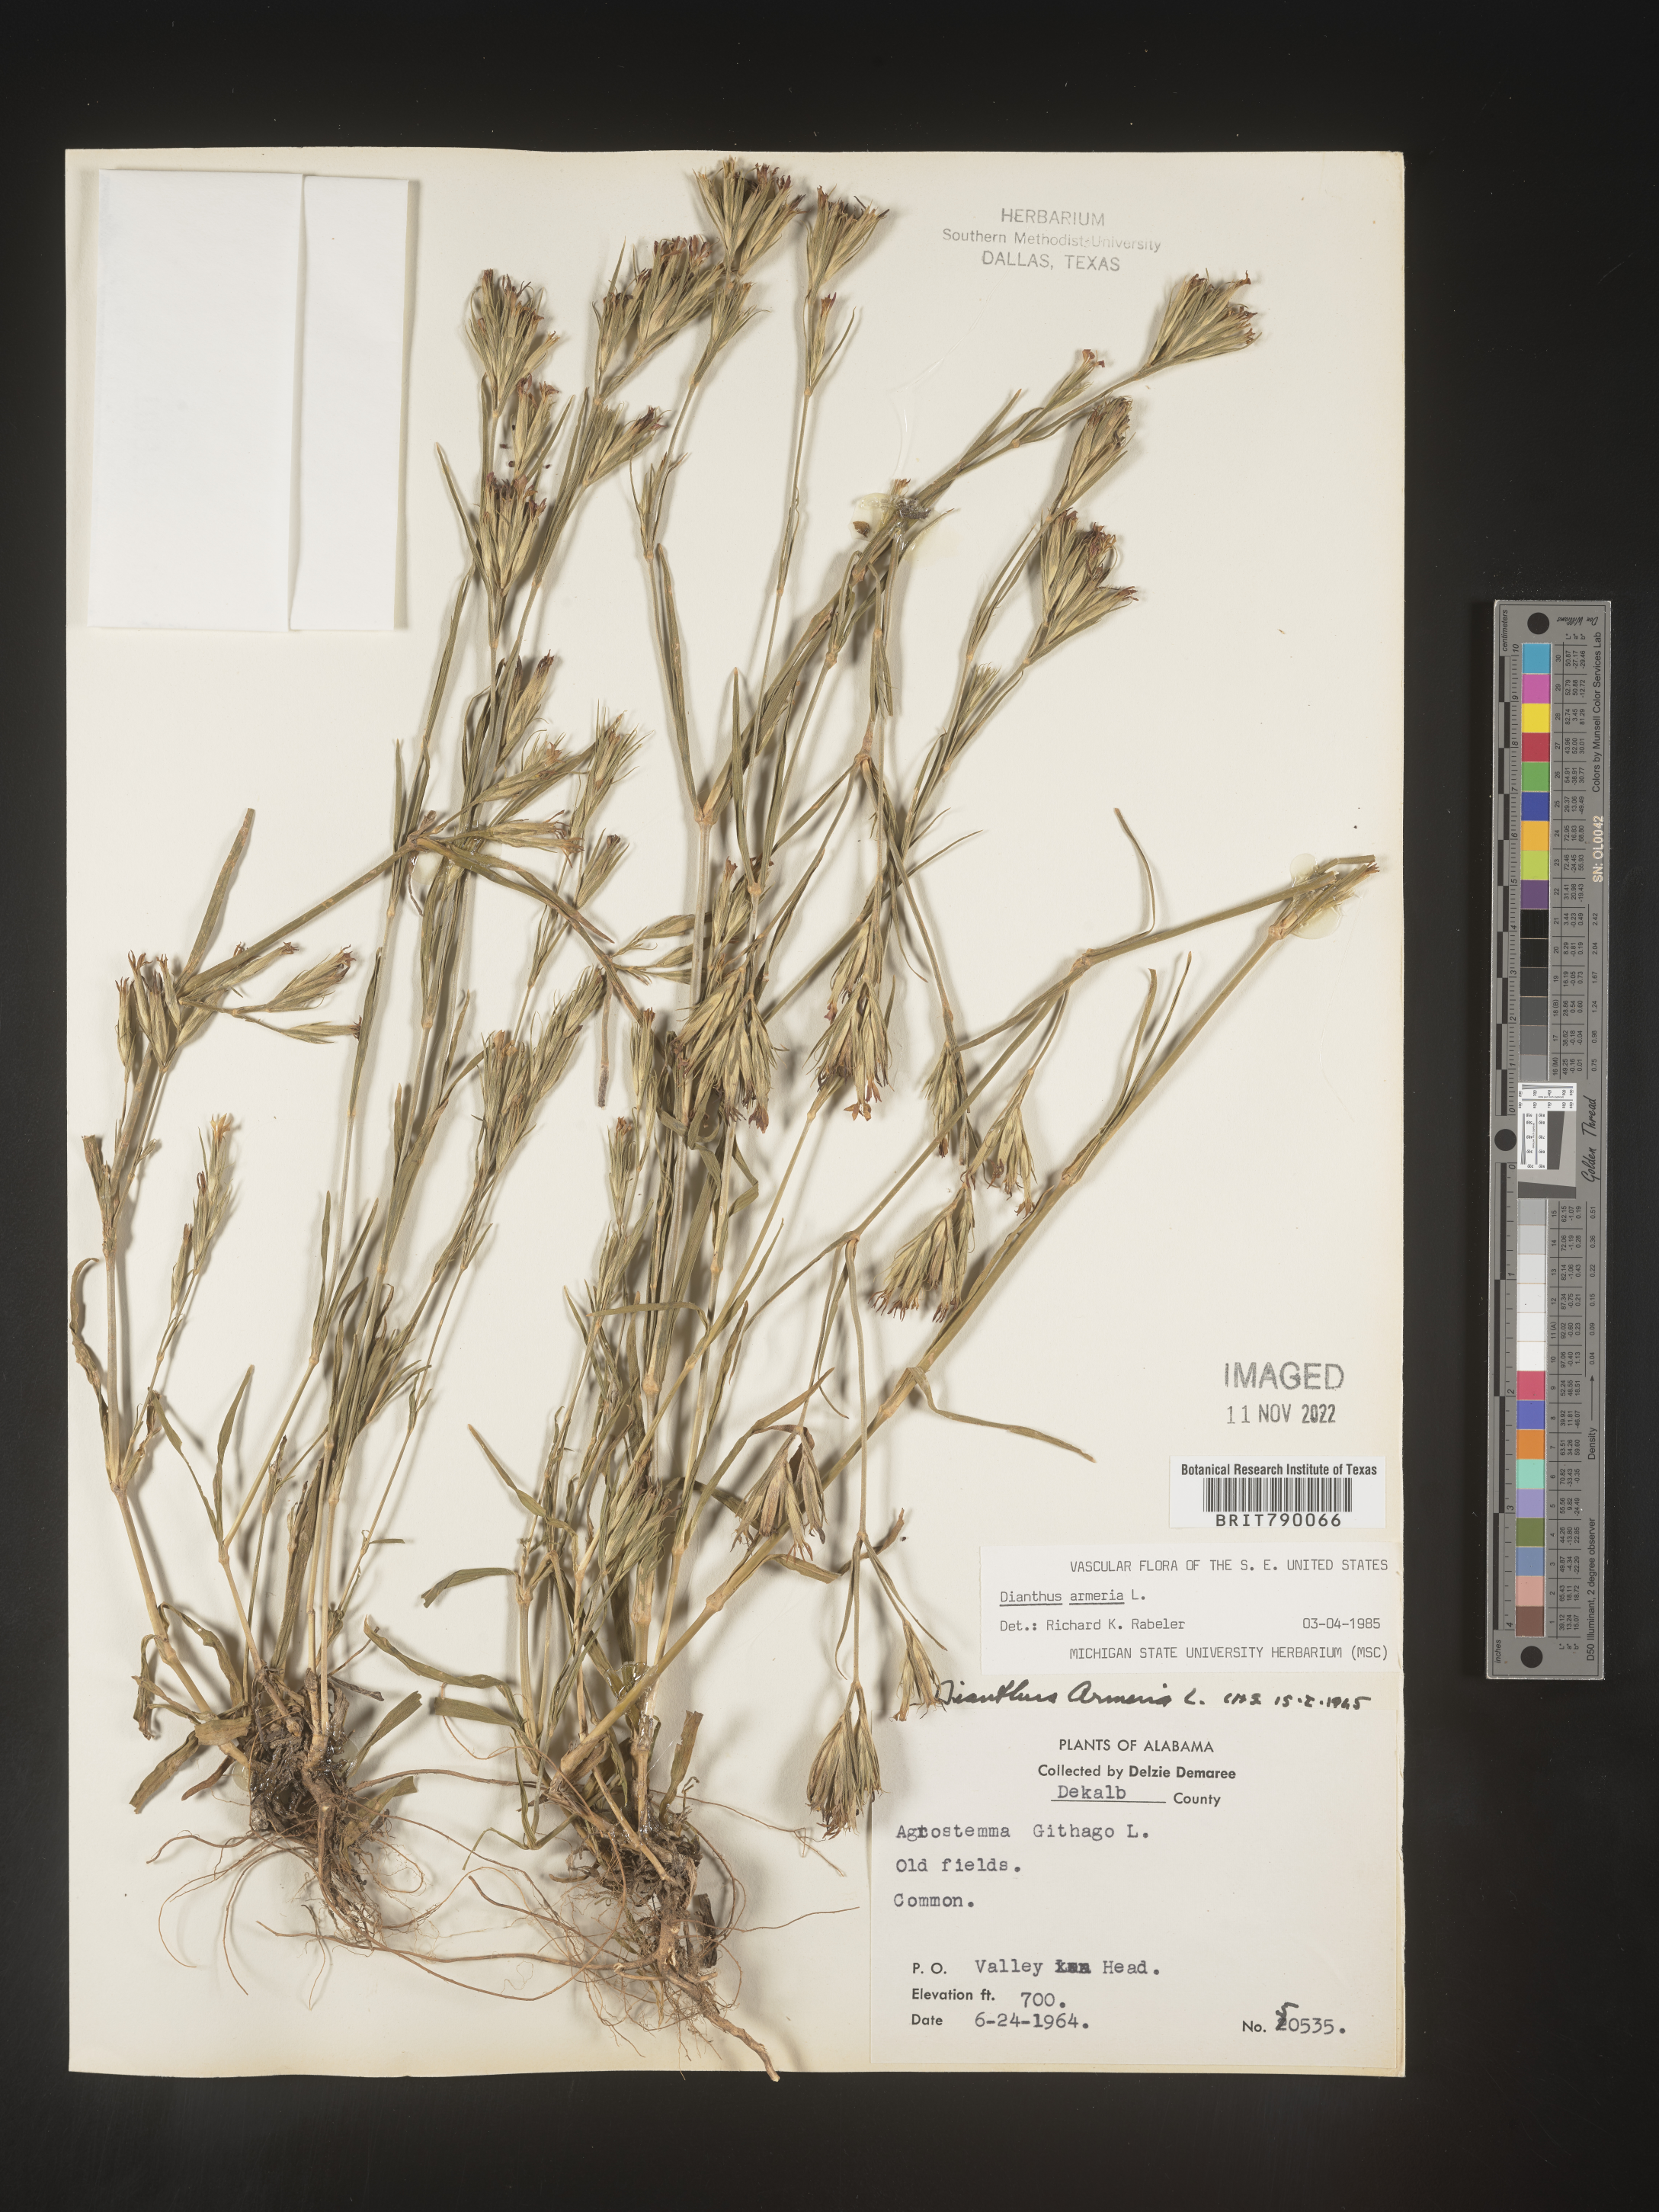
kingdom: Plantae
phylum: Tracheophyta
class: Magnoliopsida
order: Caryophyllales
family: Caryophyllaceae
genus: Dianthus
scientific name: Dianthus armeria
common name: Deptford pink
